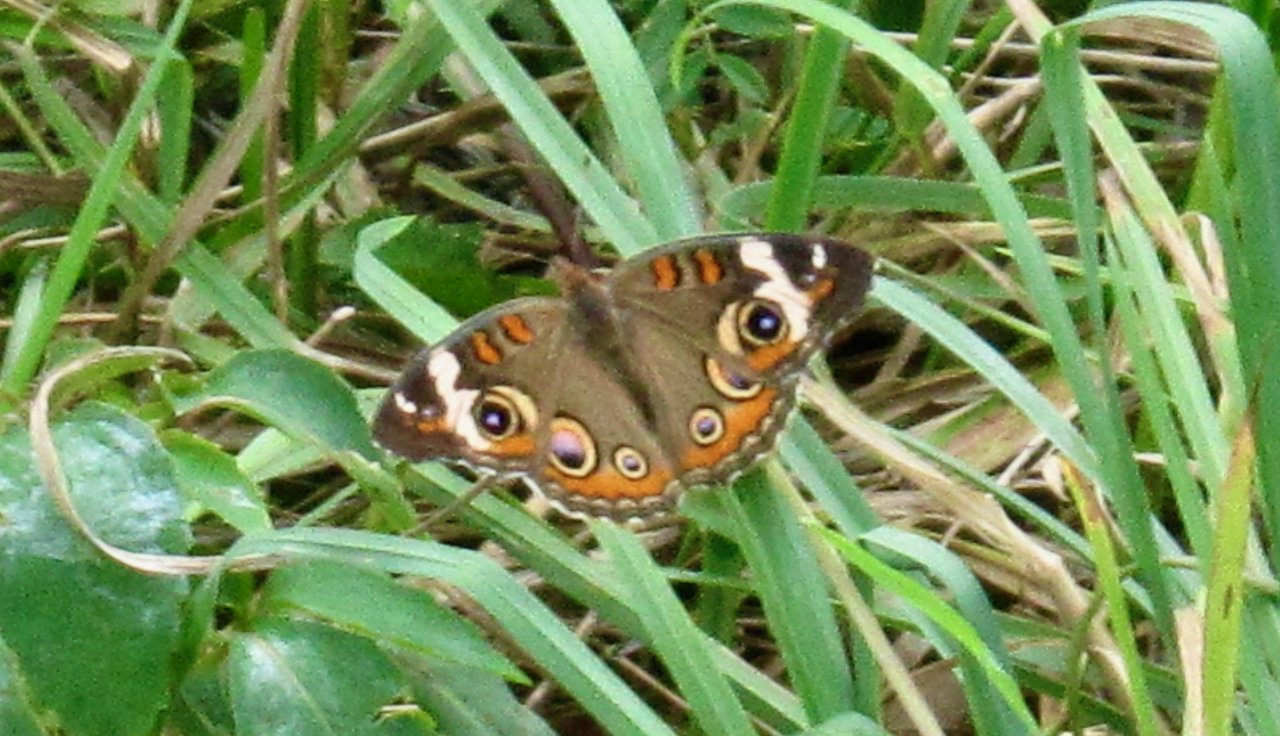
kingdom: Animalia
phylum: Arthropoda
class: Insecta
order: Lepidoptera
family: Nymphalidae
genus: Junonia
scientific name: Junonia coenia
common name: Common Buckeye
